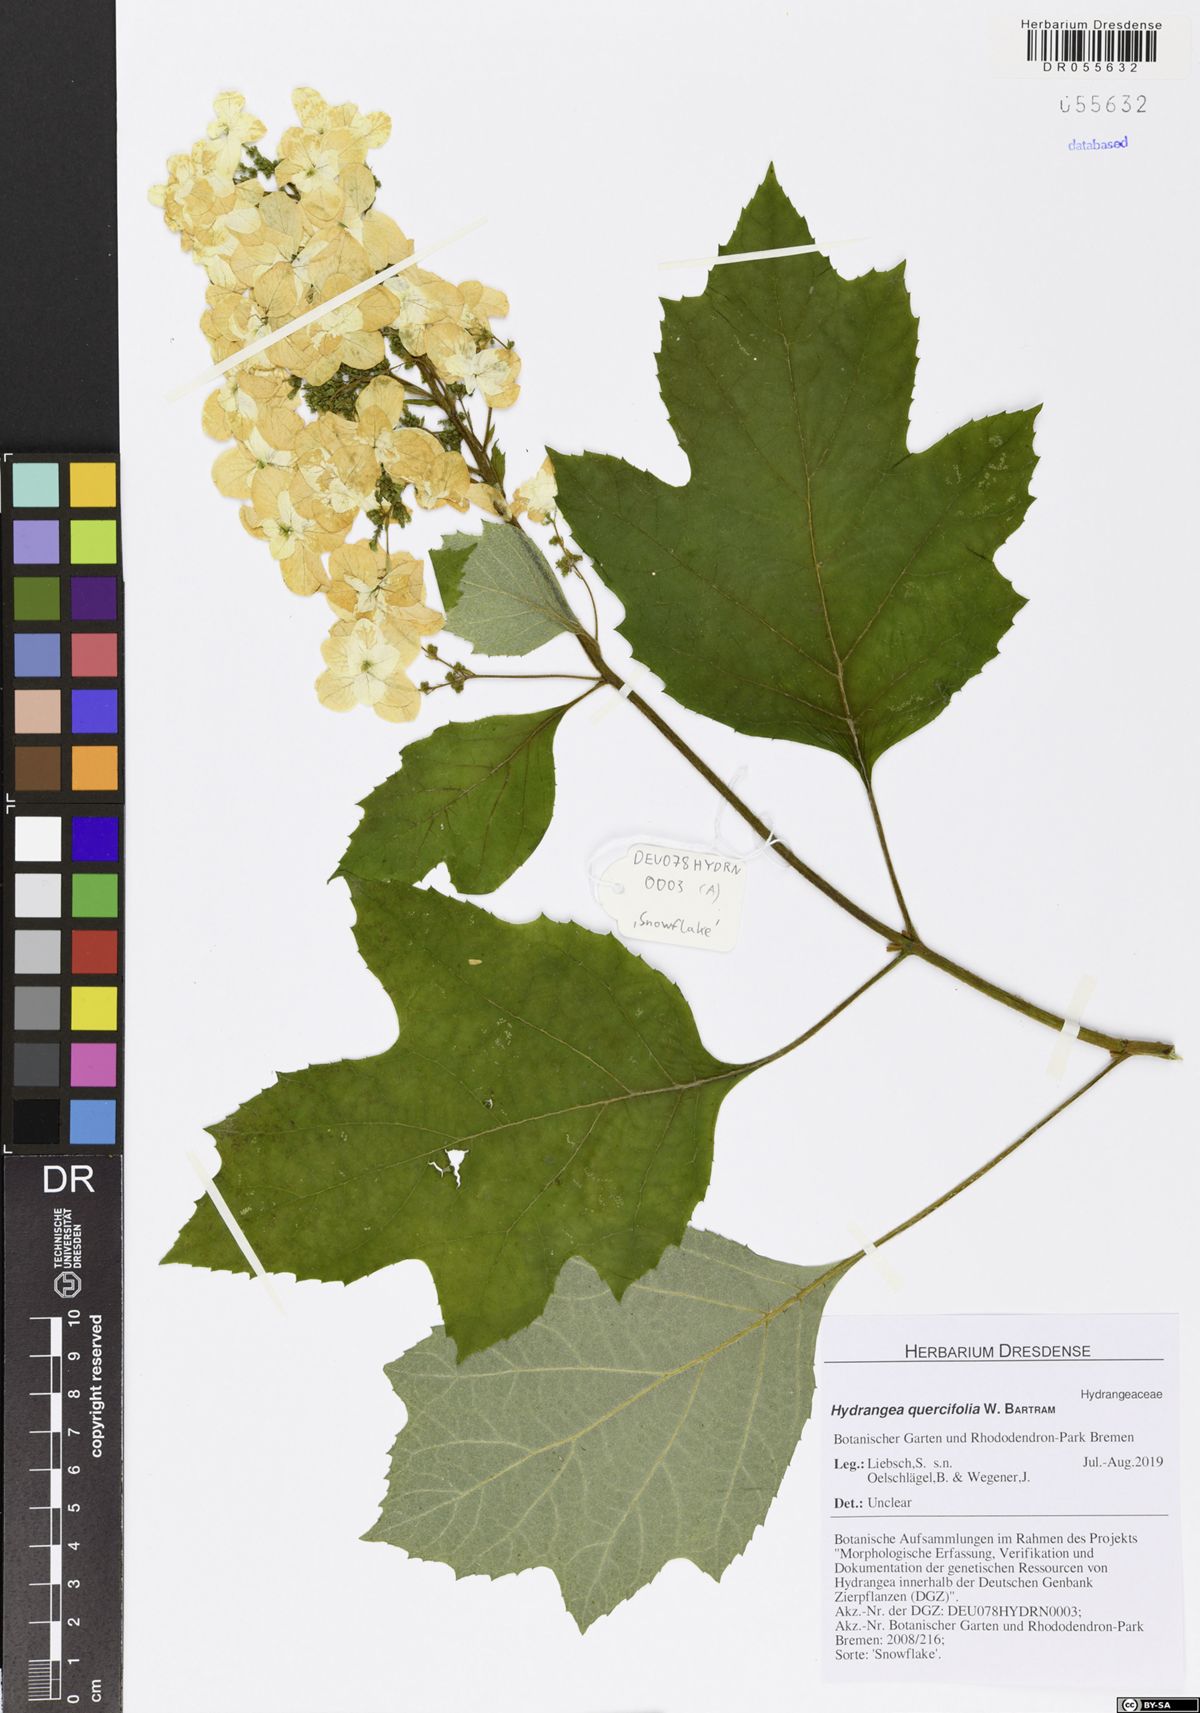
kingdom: Plantae
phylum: Tracheophyta
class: Magnoliopsida
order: Cornales
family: Hydrangeaceae
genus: Hydrangea
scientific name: Hydrangea quercifolia
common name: Oak-leaf hydrangea
